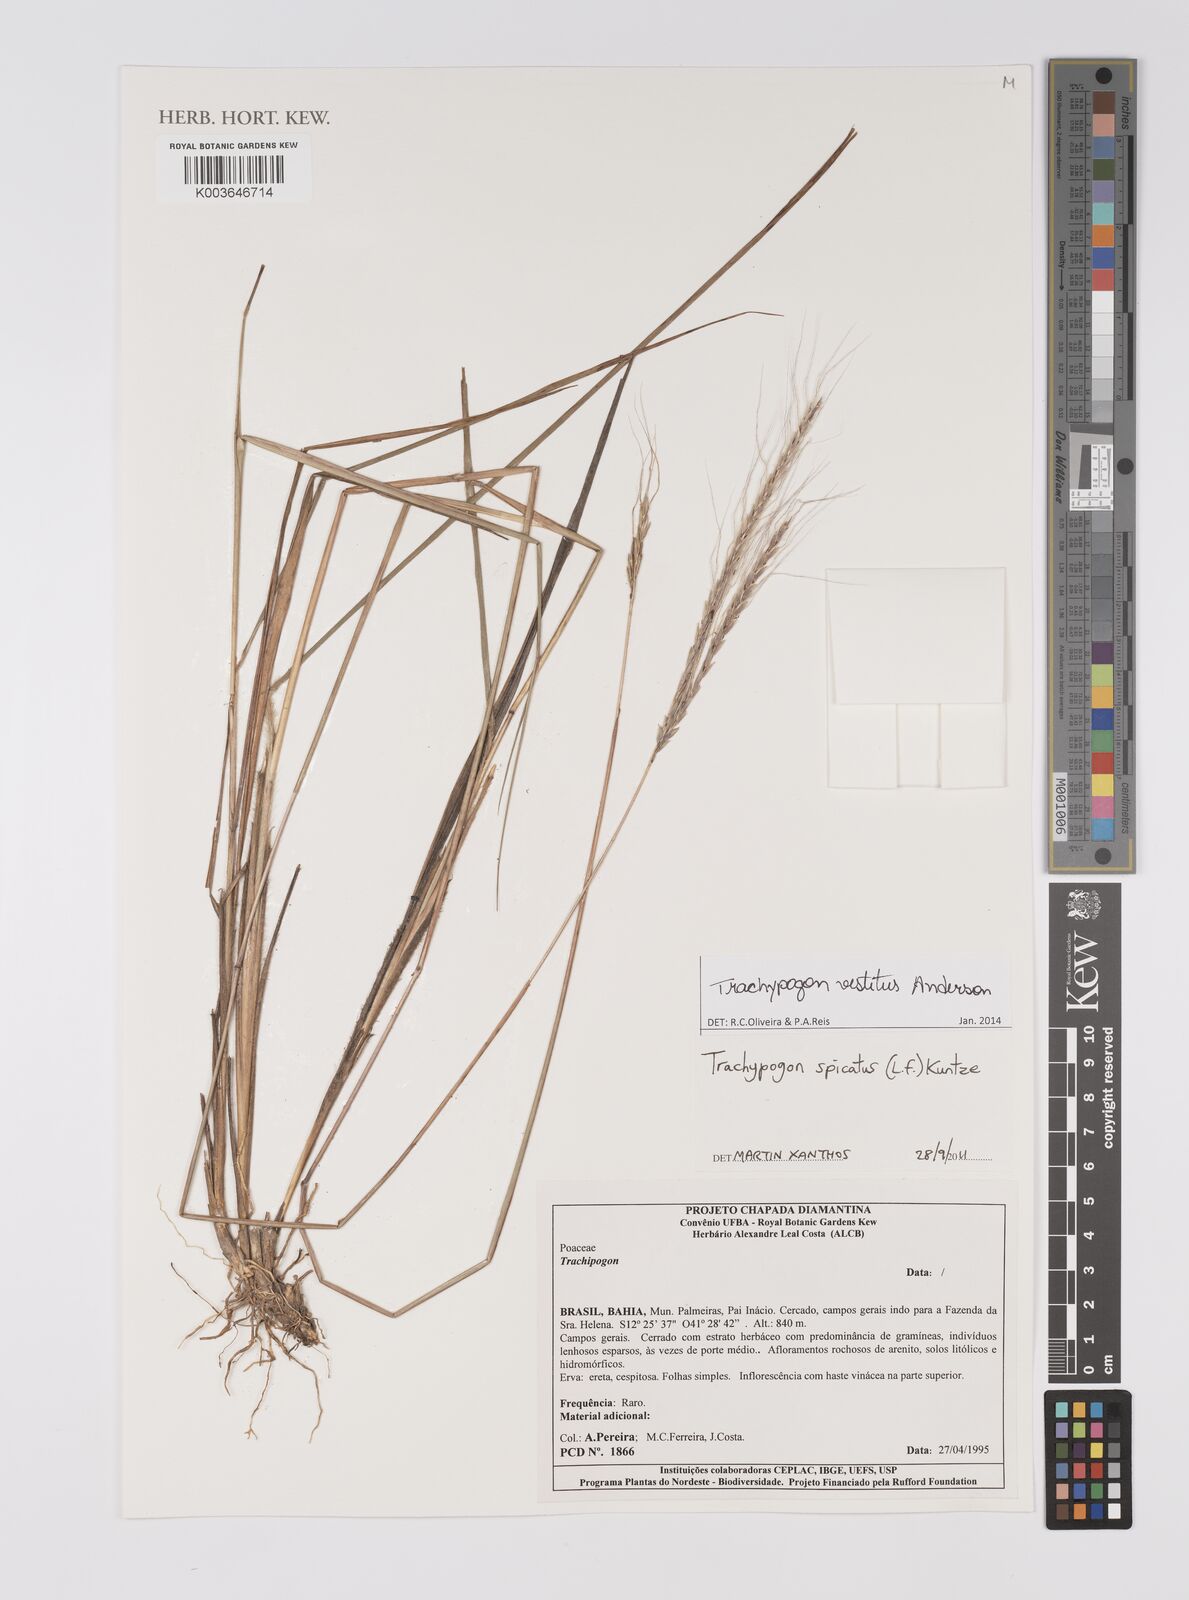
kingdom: Plantae
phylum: Tracheophyta
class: Liliopsida
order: Poales
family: Poaceae
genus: Trachypogon
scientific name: Trachypogon vestitus
